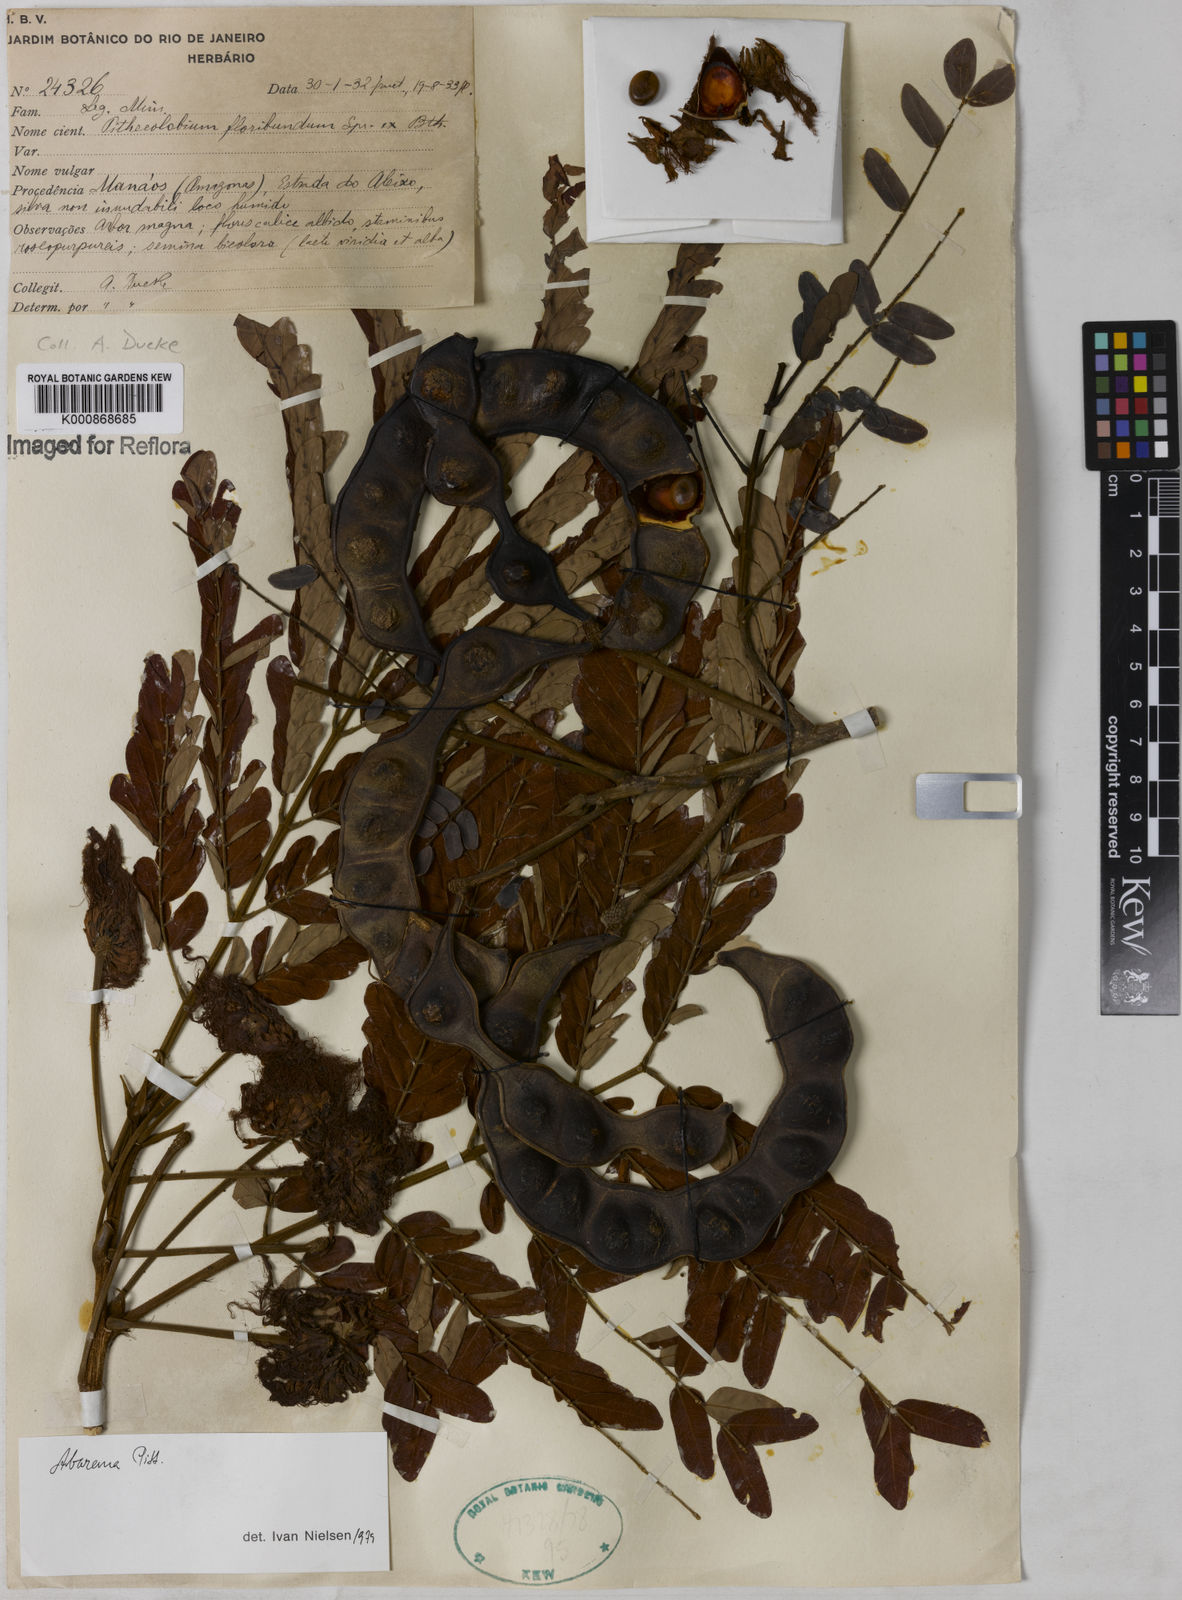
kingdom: Plantae
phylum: Tracheophyta
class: Magnoliopsida
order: Fabales
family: Fabaceae
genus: Jupunba
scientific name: Jupunba floribunda
